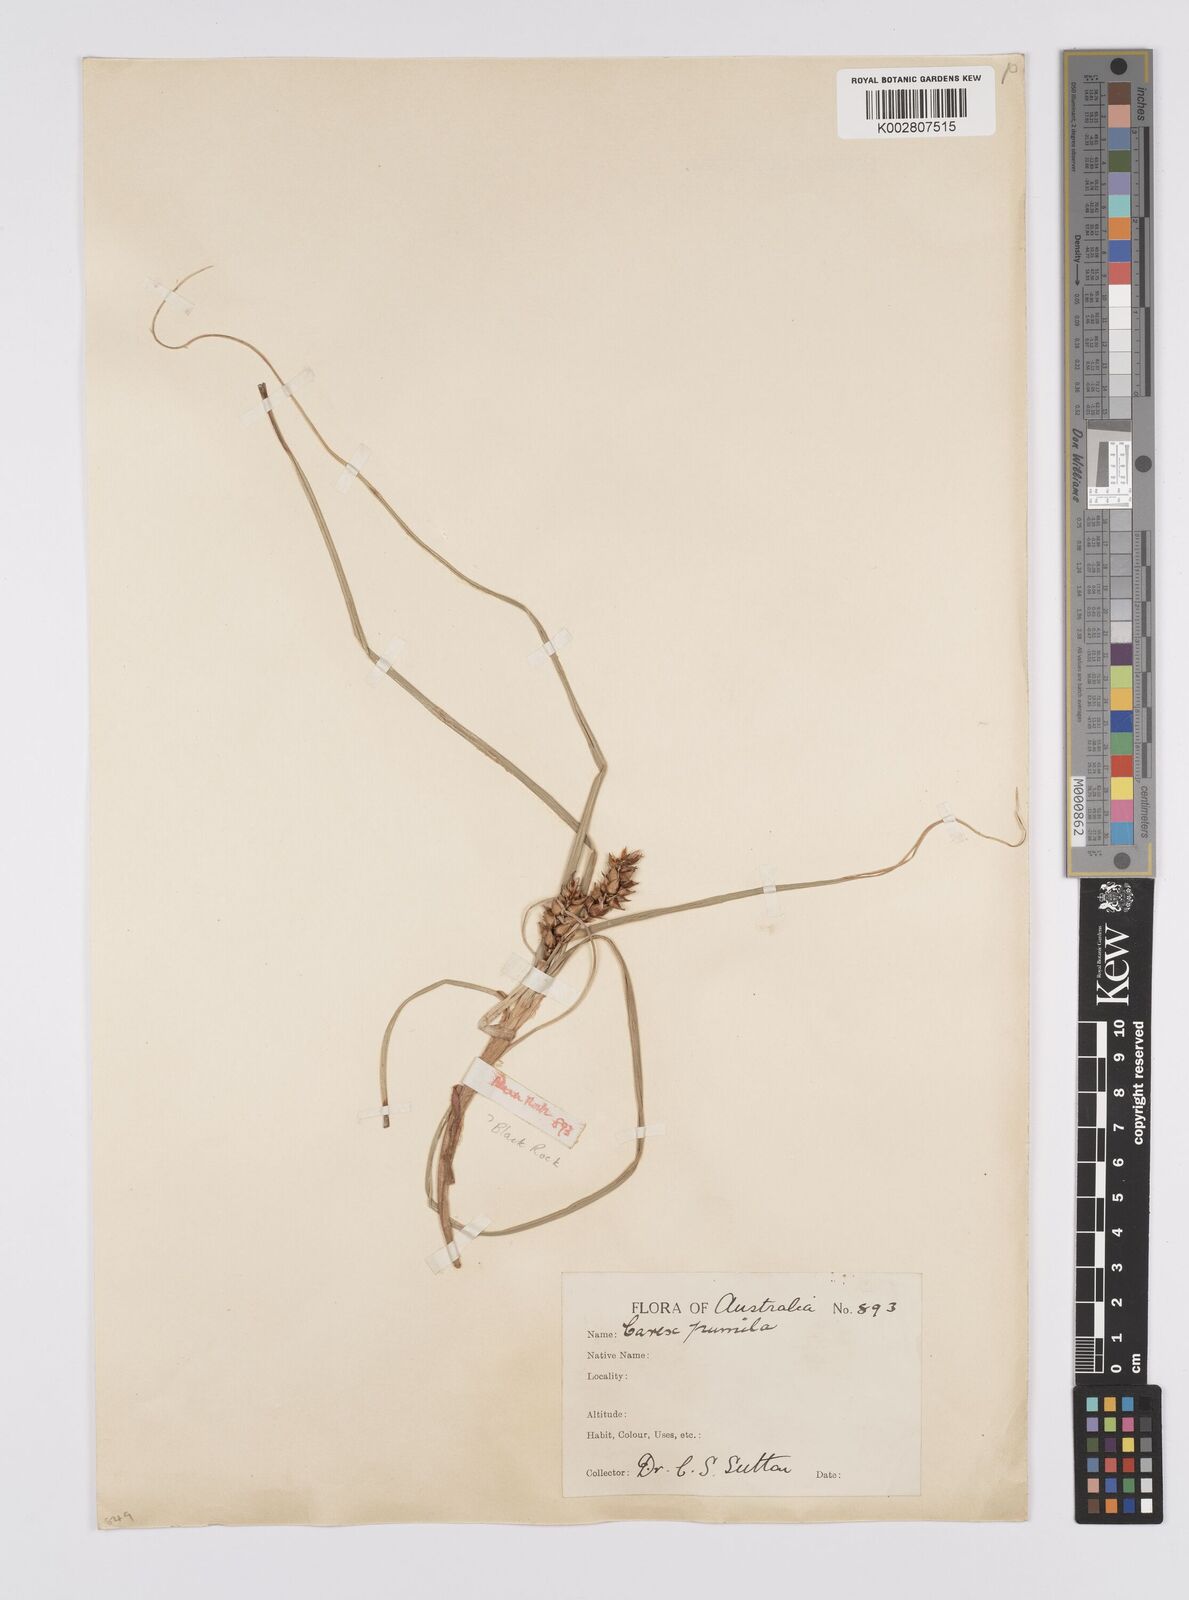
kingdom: Plantae
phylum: Tracheophyta
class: Liliopsida
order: Poales
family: Cyperaceae
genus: Carex
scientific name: Carex pumila
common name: Dwarf sedge
